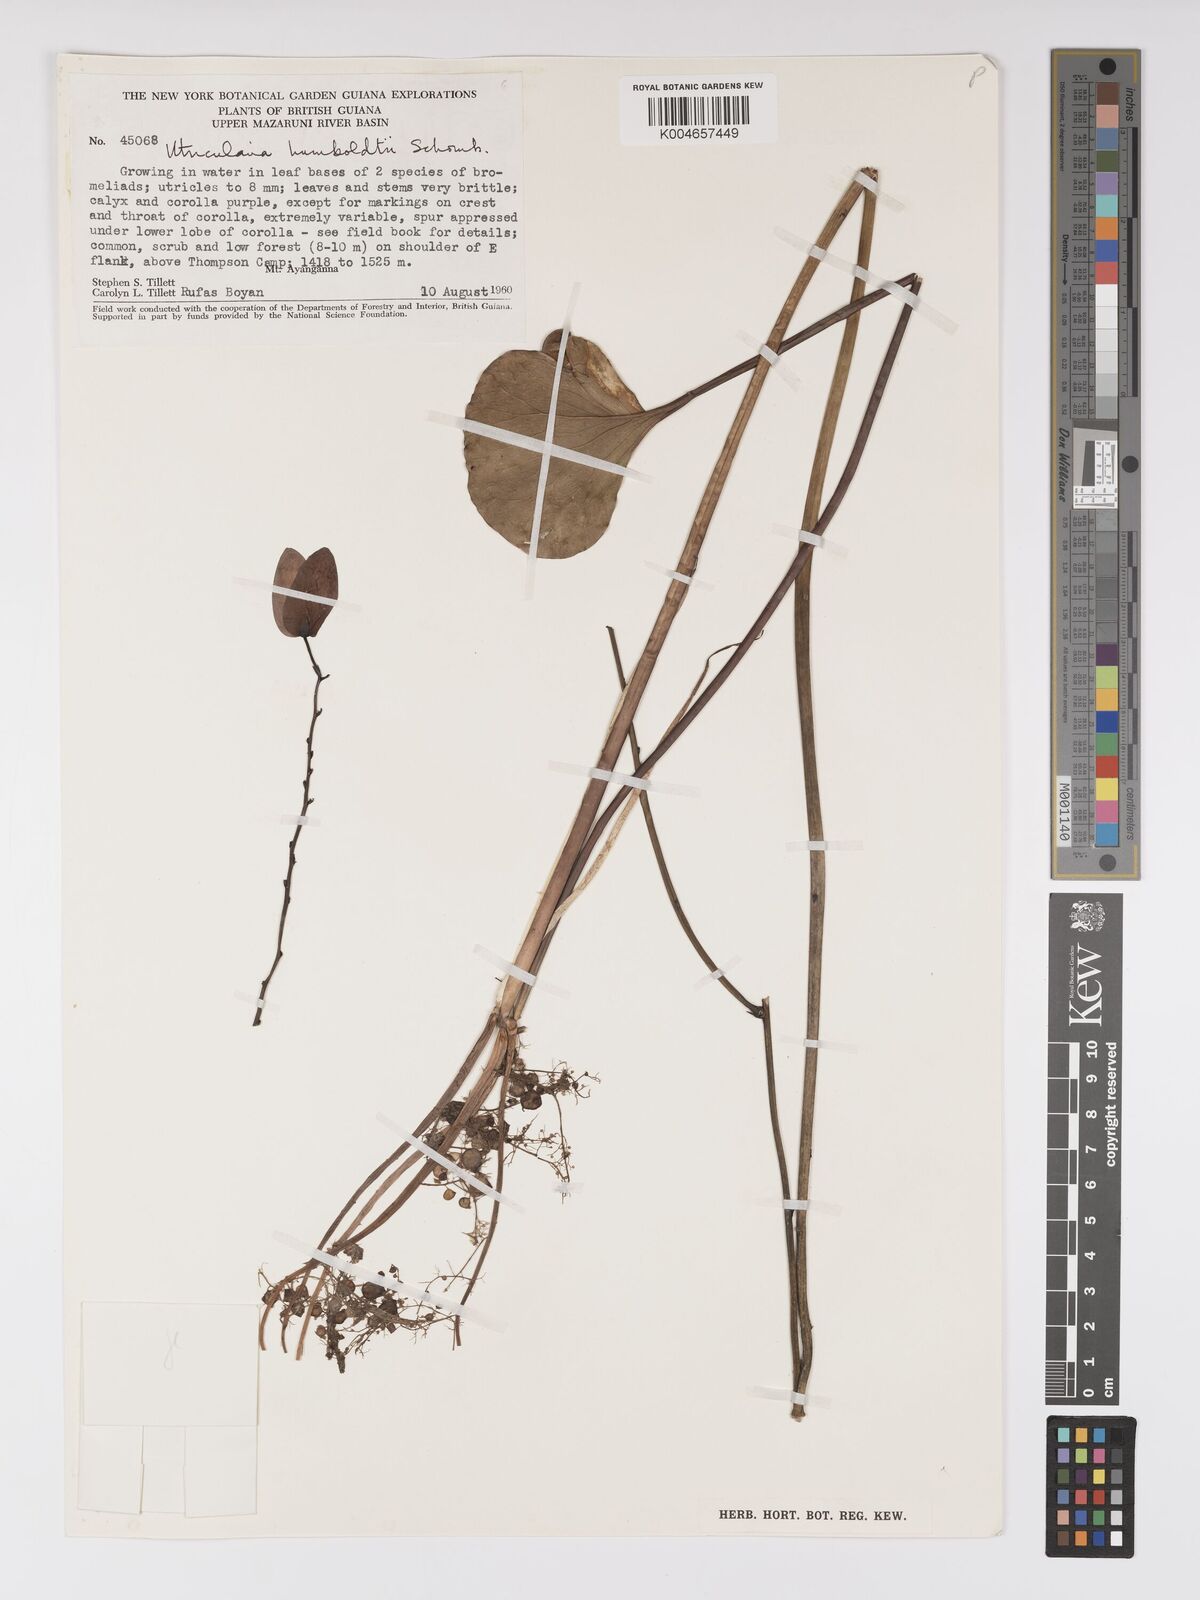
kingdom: Plantae
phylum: Tracheophyta
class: Magnoliopsida
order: Lamiales
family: Lentibulariaceae
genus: Utricularia
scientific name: Utricularia humboldtii
